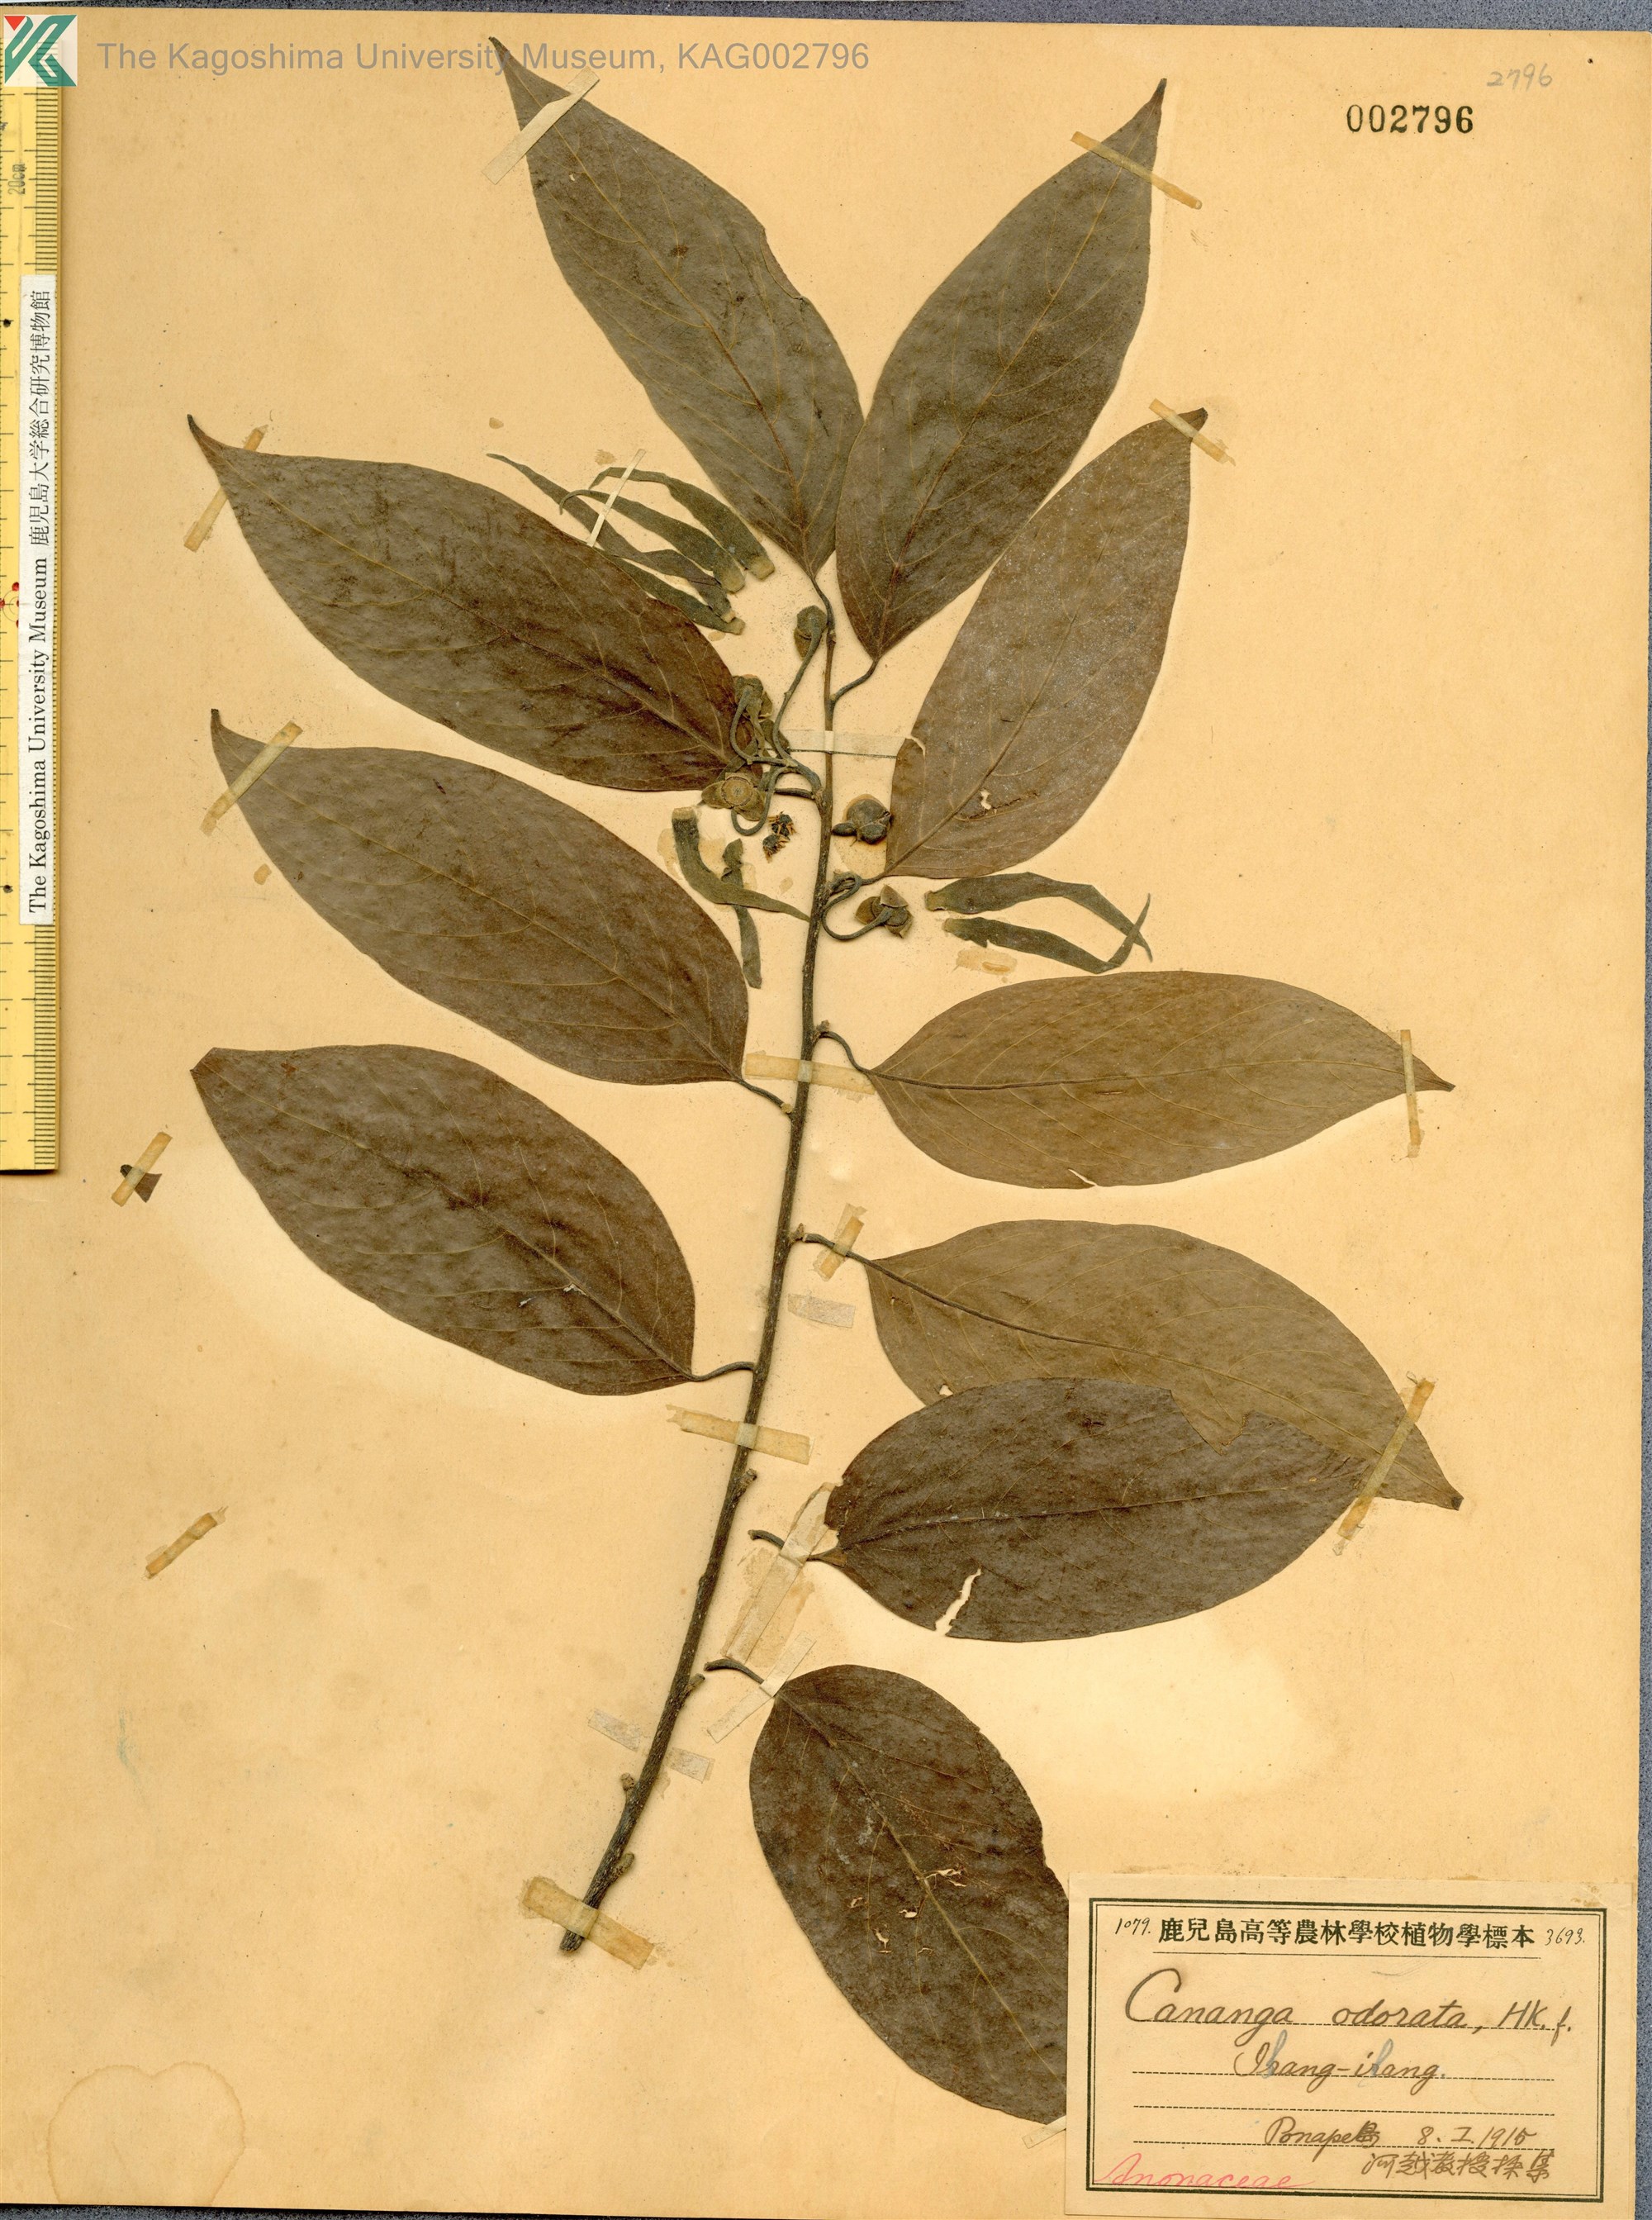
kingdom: Plantae
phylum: Tracheophyta
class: Magnoliopsida
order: Magnoliales
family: Annonaceae
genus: Cananga
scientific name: Cananga odorata
